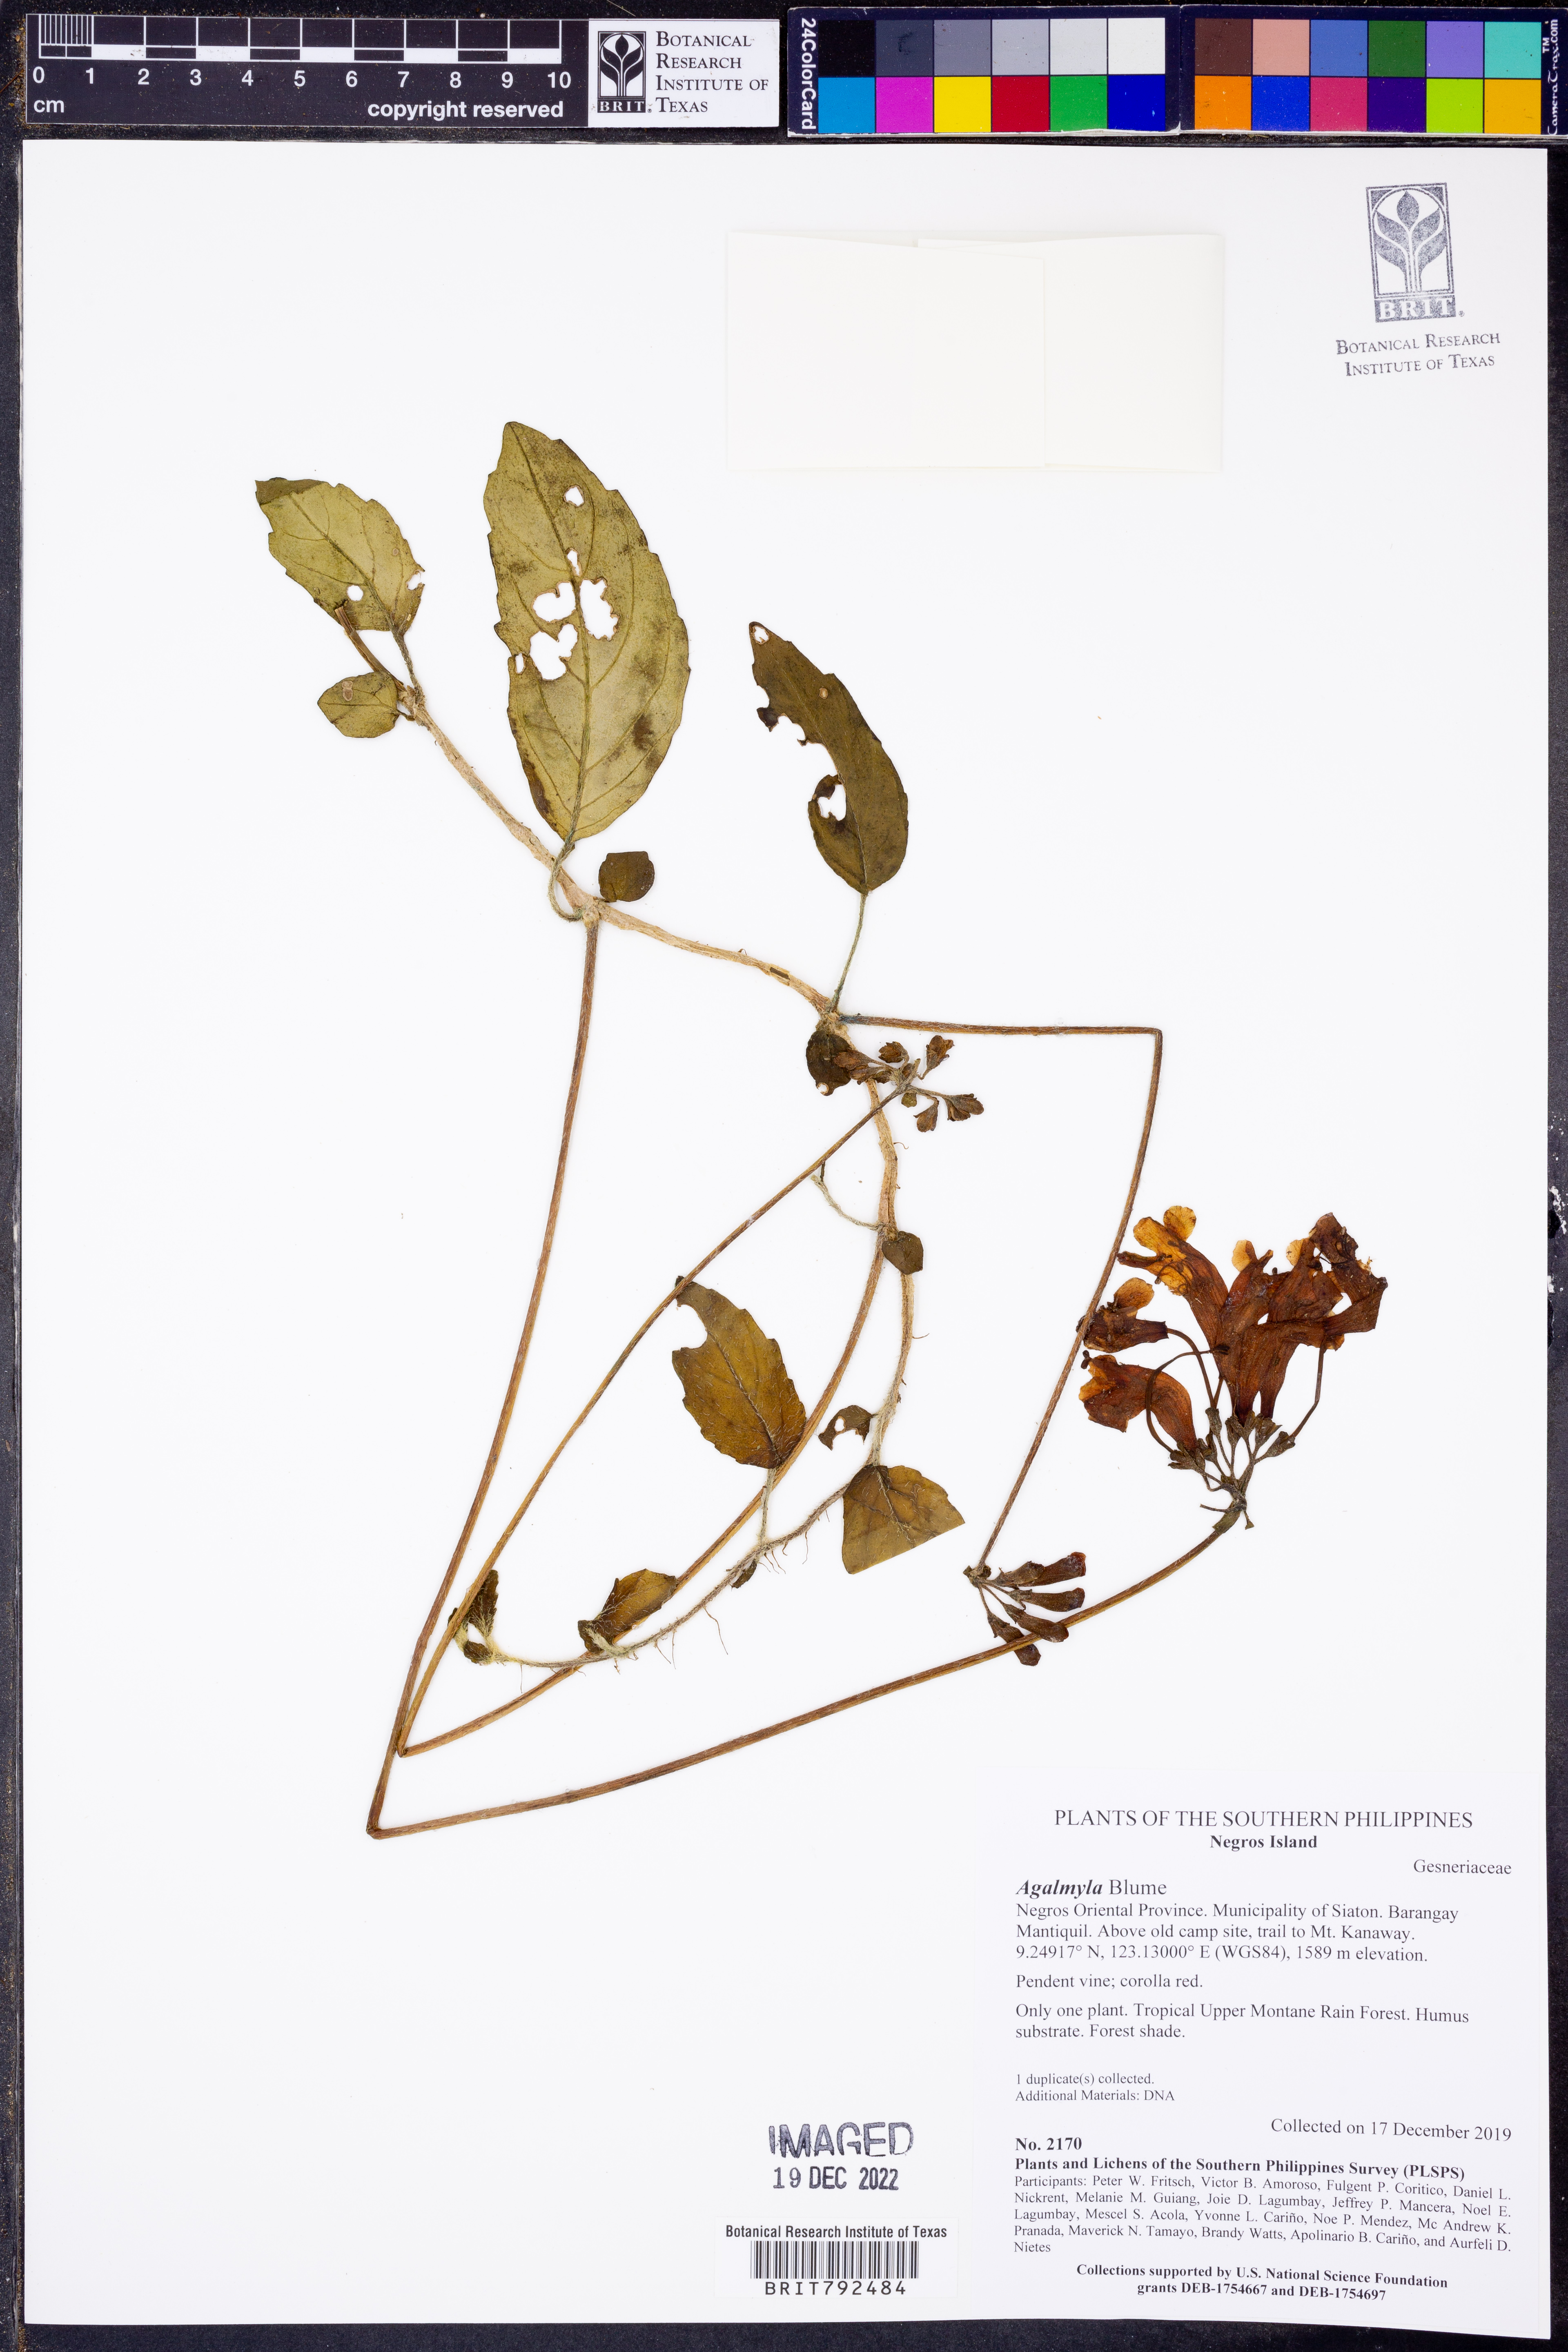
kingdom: Plantae
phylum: Tracheophyta
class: Magnoliopsida
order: Lamiales
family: Gesneriaceae
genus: Agalmyla
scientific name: Agalmyla
